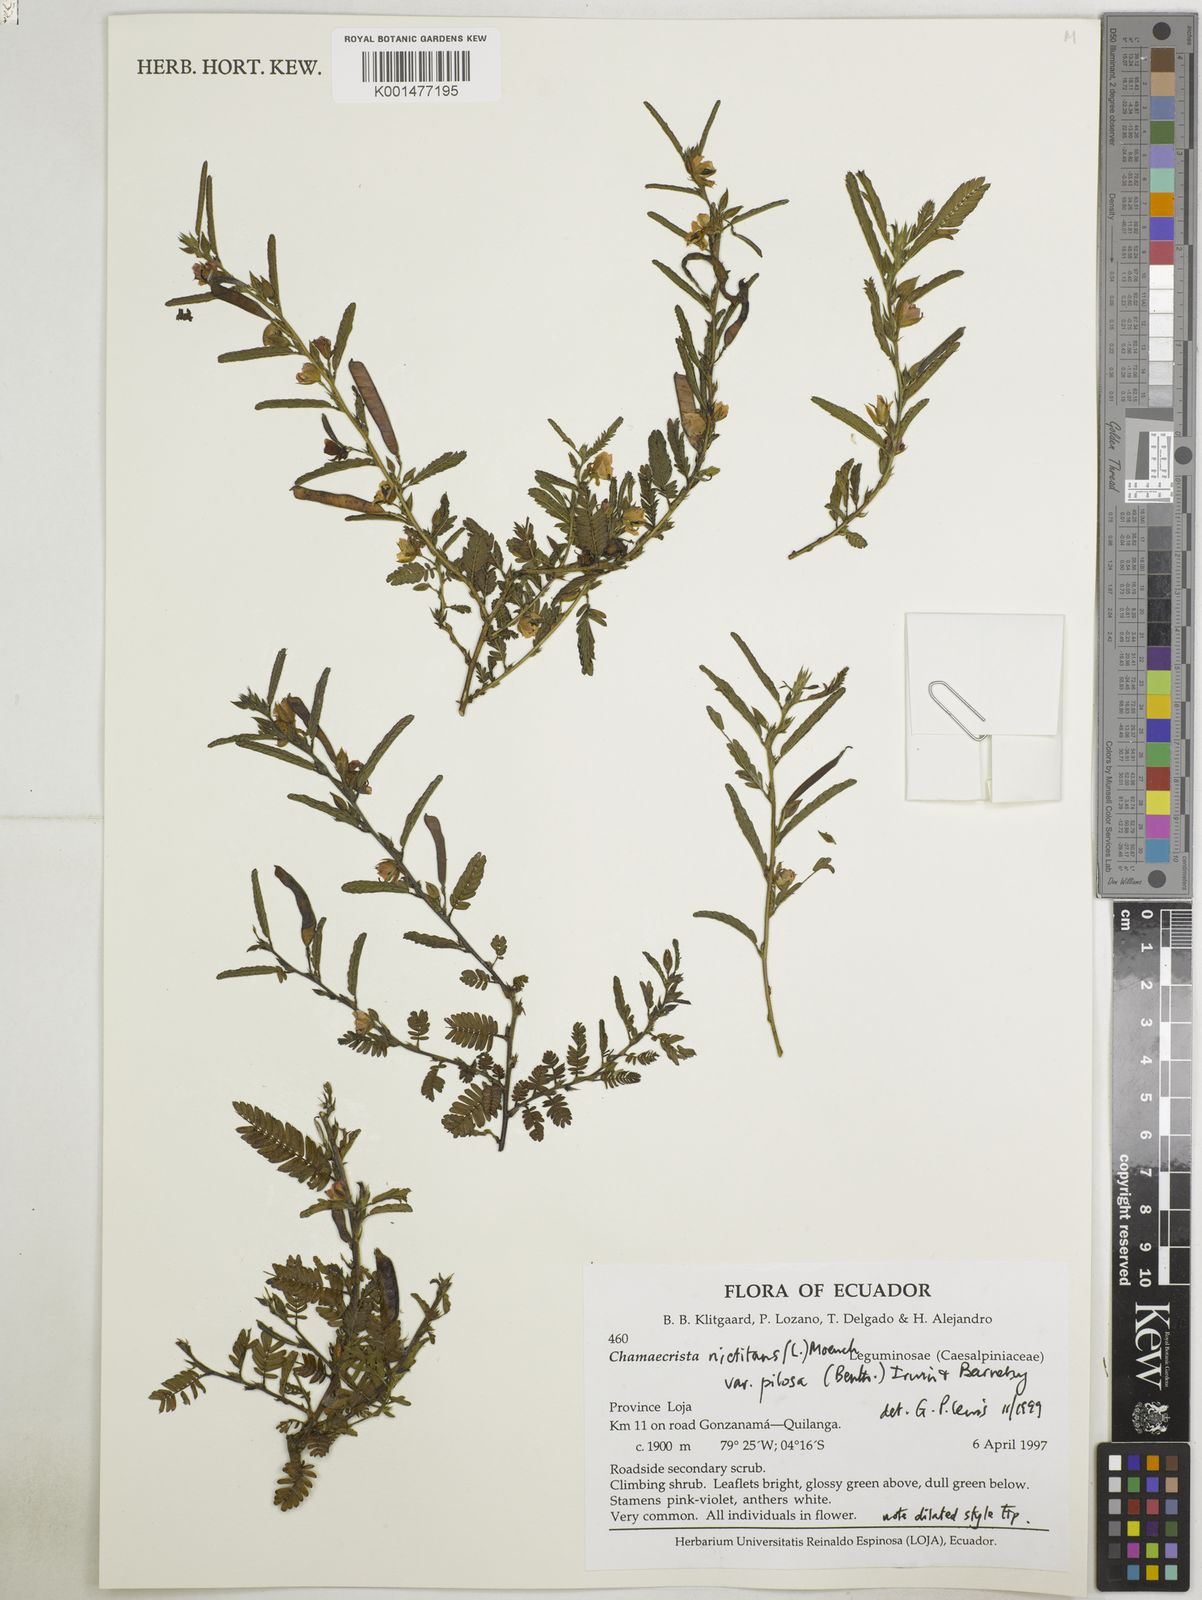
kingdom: Plantae
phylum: Tracheophyta
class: Magnoliopsida
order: Fabales
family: Fabaceae
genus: Chamaecrista
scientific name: Chamaecrista nictitans
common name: Sensitive cassia
